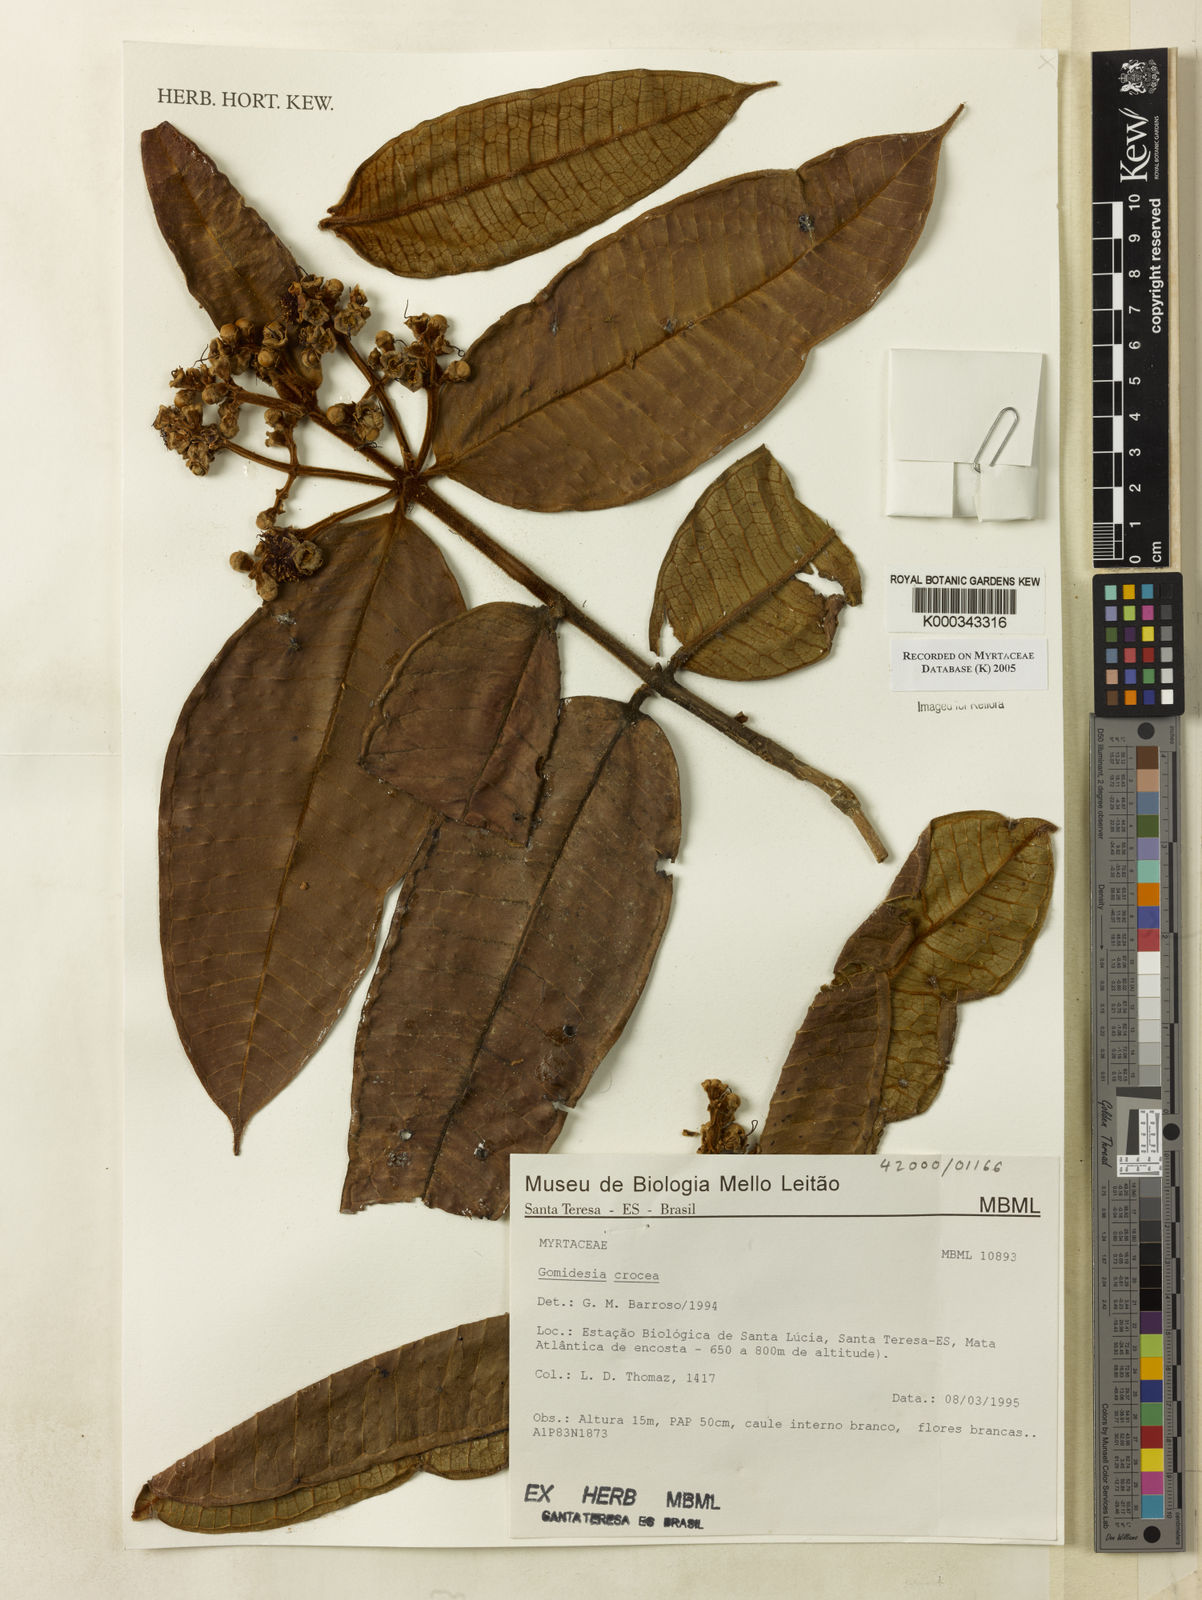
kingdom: Plantae
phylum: Tracheophyta
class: Magnoliopsida
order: Myrtales
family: Myrtaceae
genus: Myrcia
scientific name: Myrcia amplexicaulis
